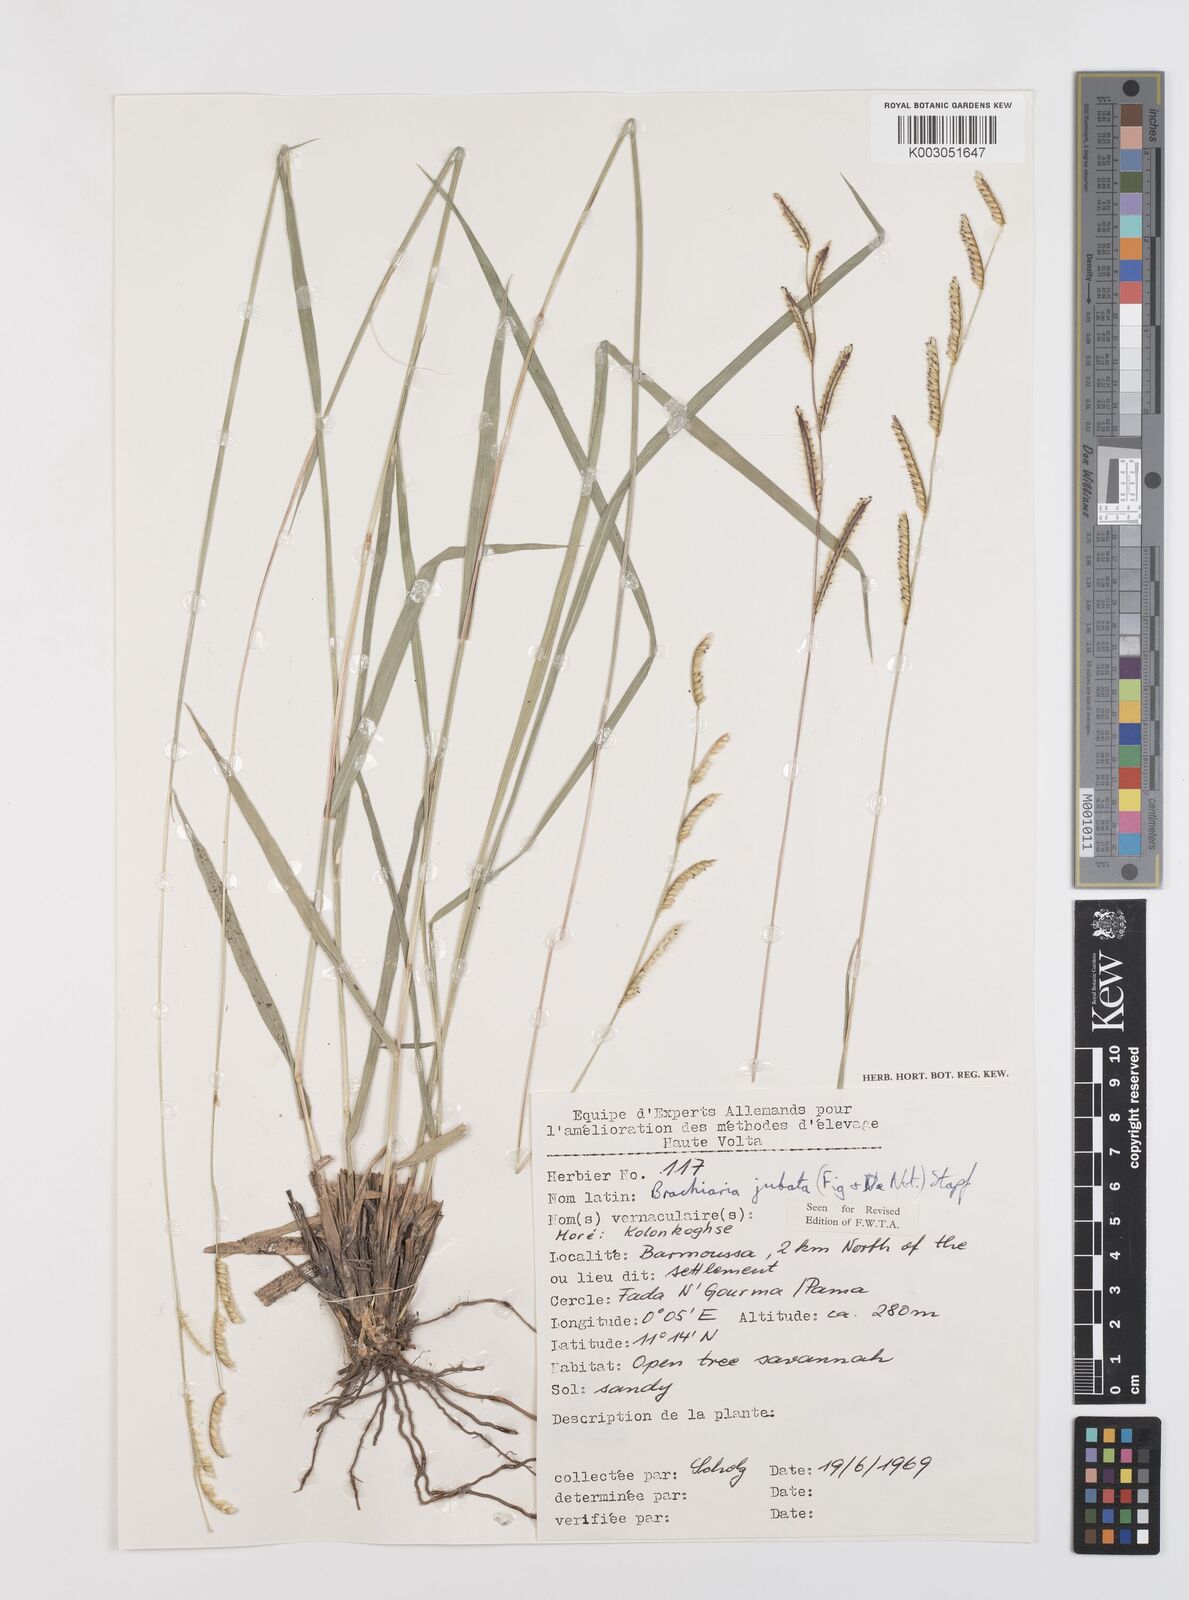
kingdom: Plantae
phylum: Tracheophyta
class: Liliopsida
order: Poales
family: Poaceae
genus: Urochloa
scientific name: Urochloa jubata
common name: Buffalograss
